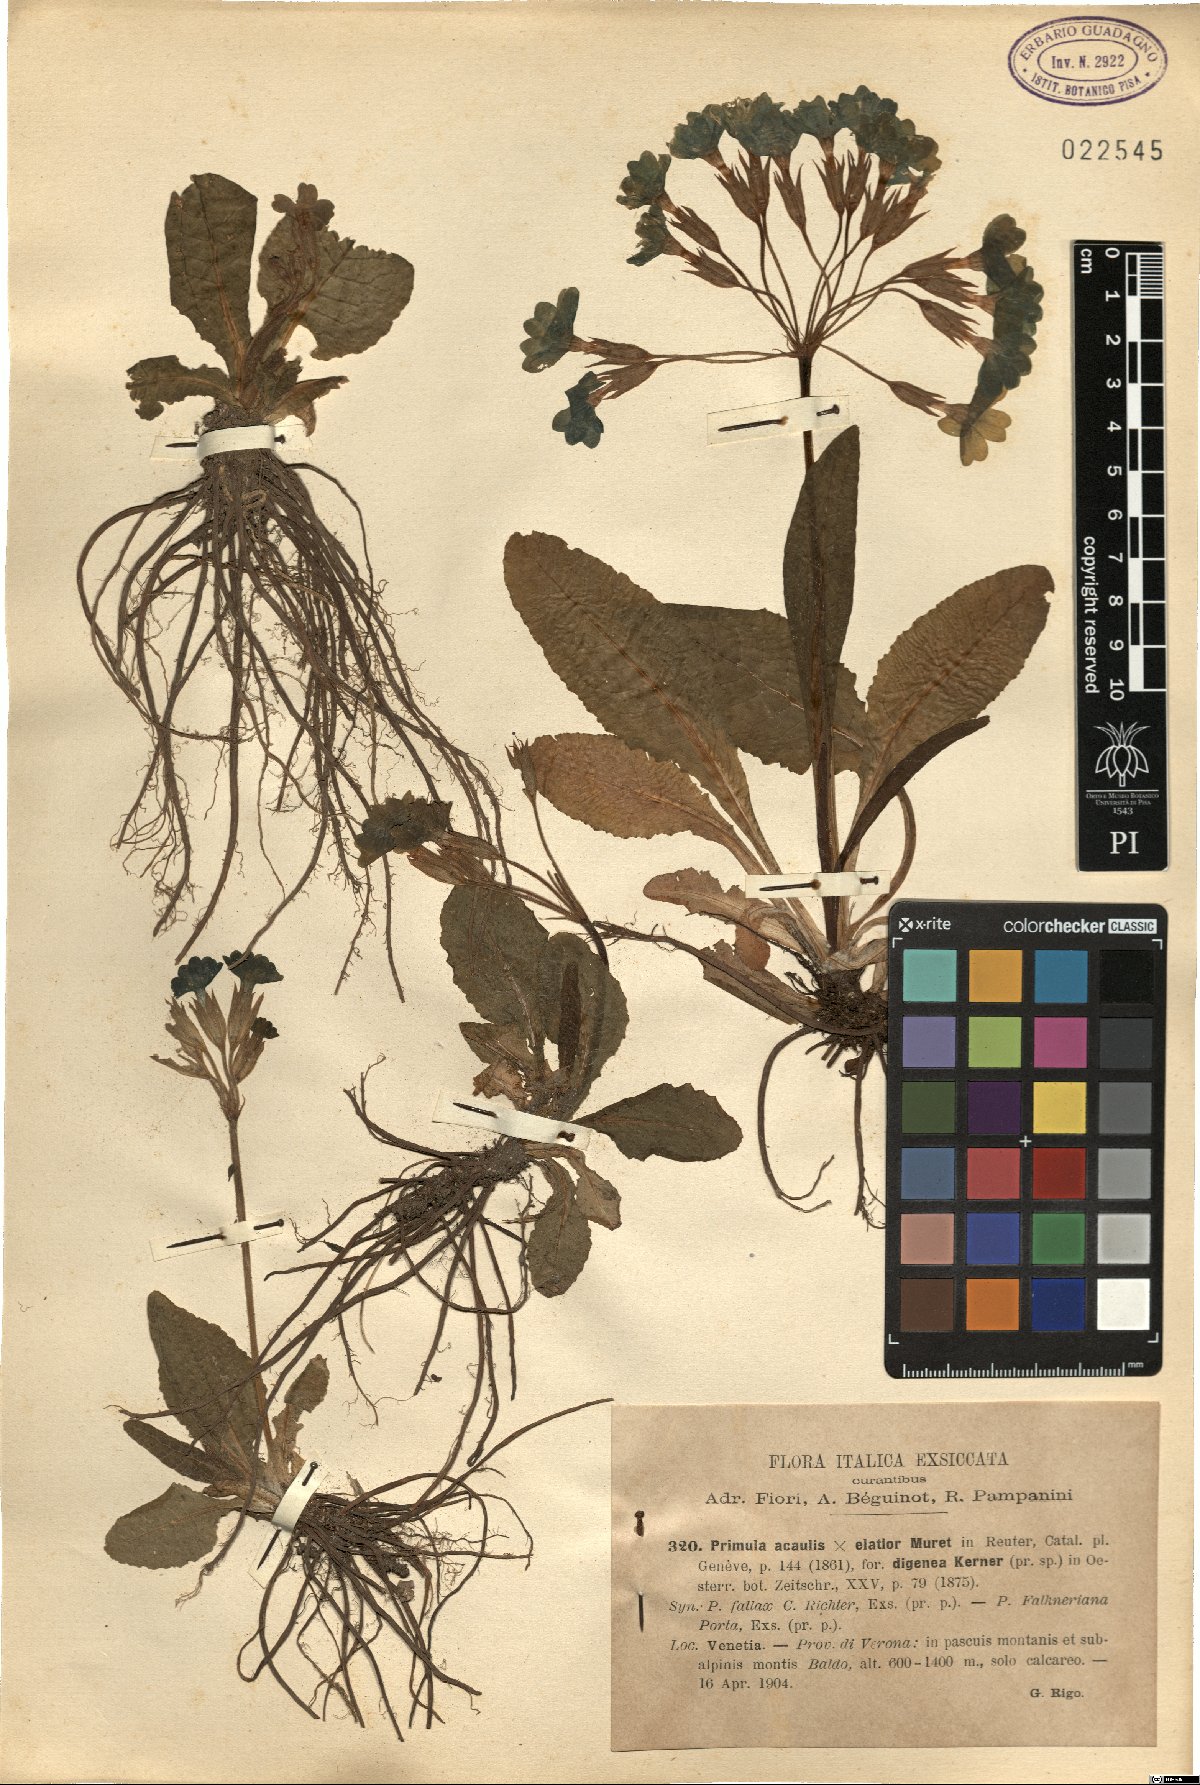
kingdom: Plantae
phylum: Tracheophyta
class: Magnoliopsida
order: Ericales
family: Primulaceae
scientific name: Primulaceae
